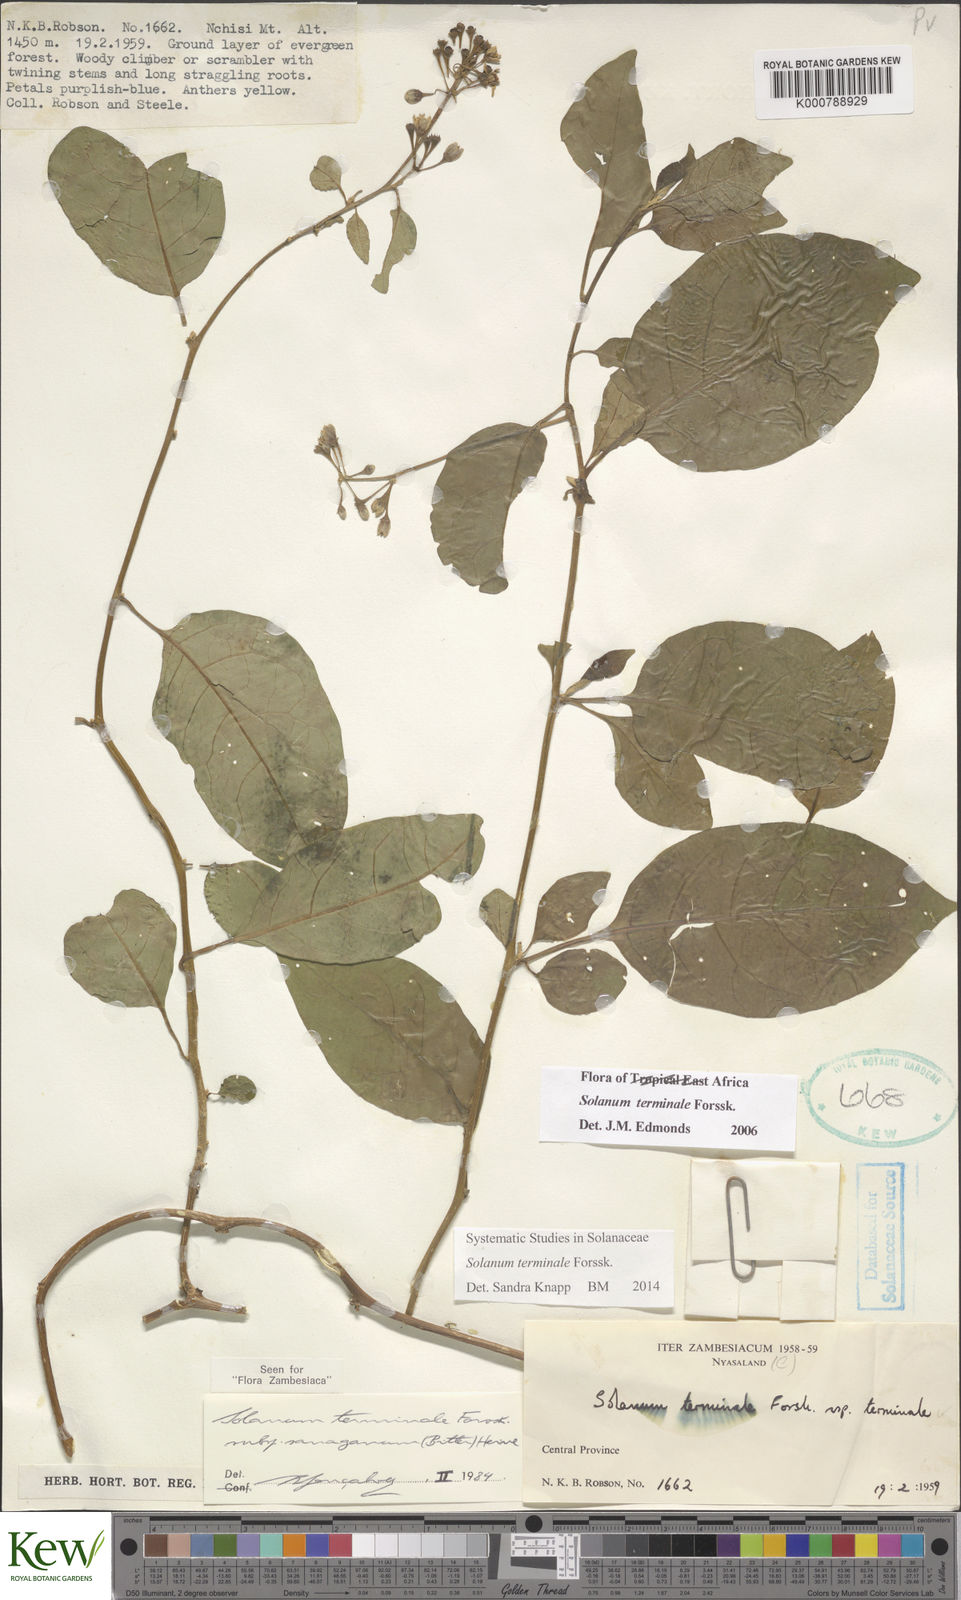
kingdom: Plantae
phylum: Tracheophyta
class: Magnoliopsida
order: Solanales
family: Solanaceae
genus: Solanum
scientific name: Solanum terminale
